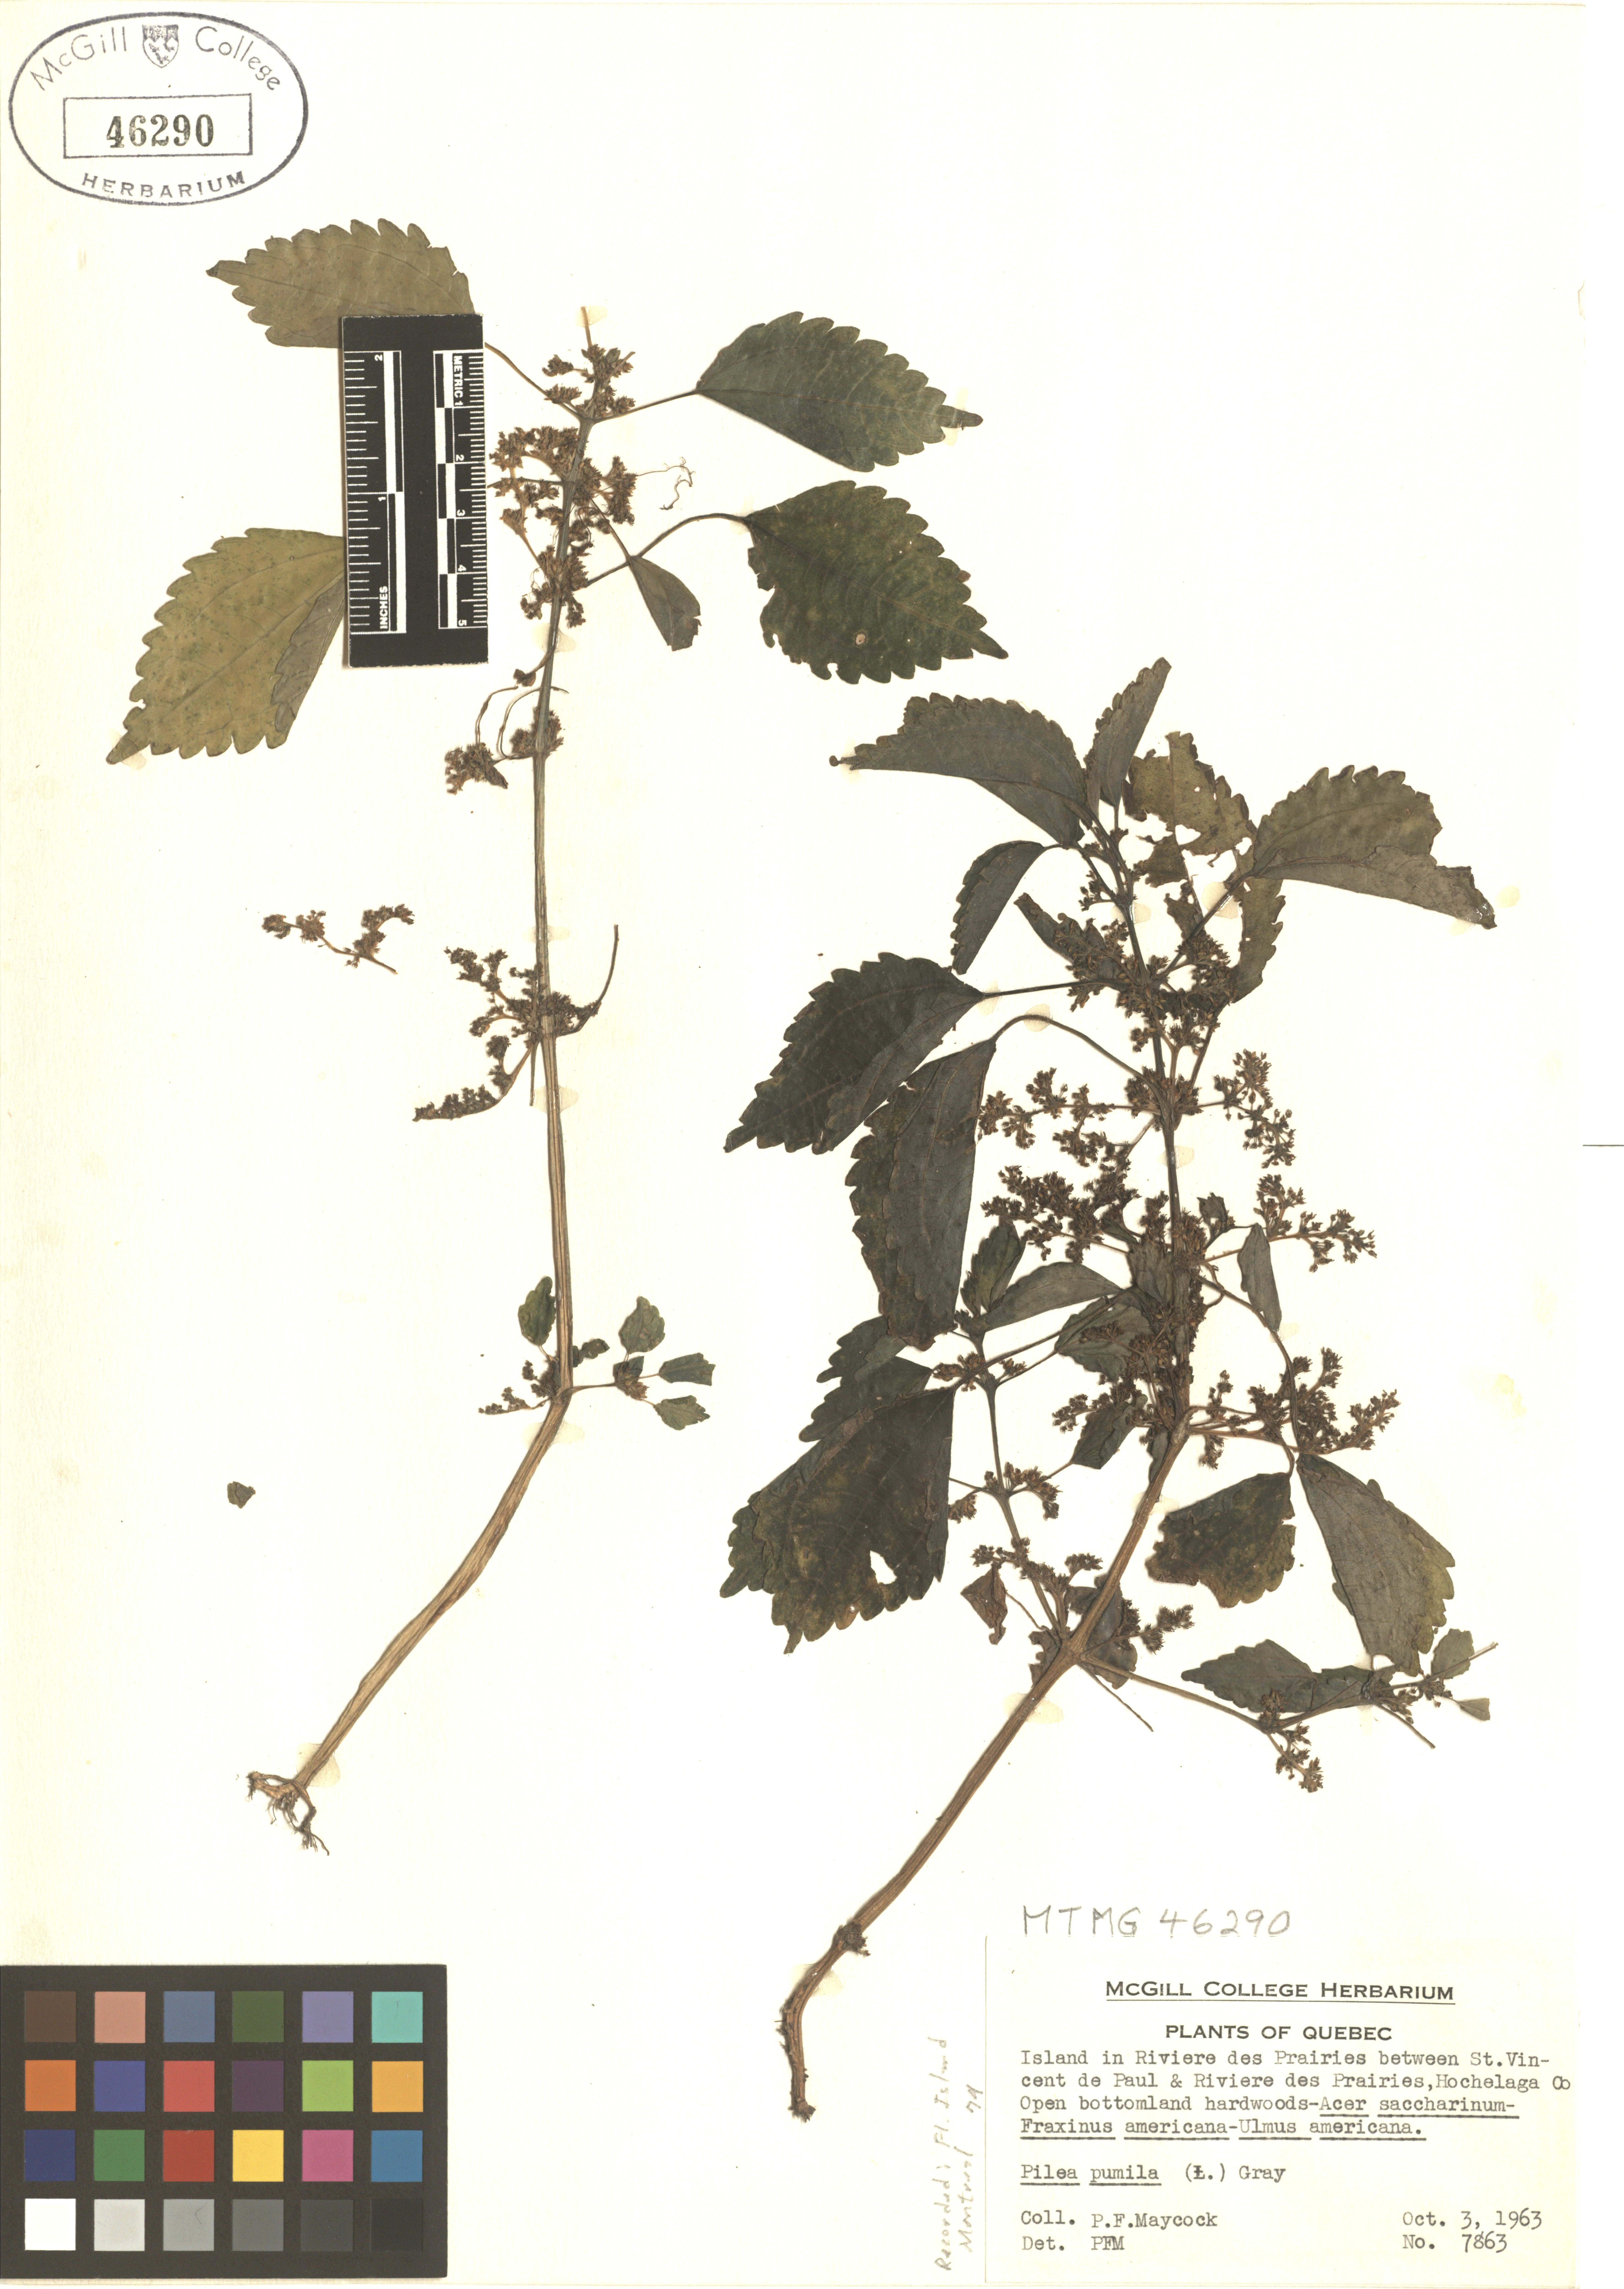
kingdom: Plantae
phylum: Tracheophyta
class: Magnoliopsida
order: Rosales
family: Urticaceae
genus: Pilea
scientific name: Pilea pumila
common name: Clearweed
